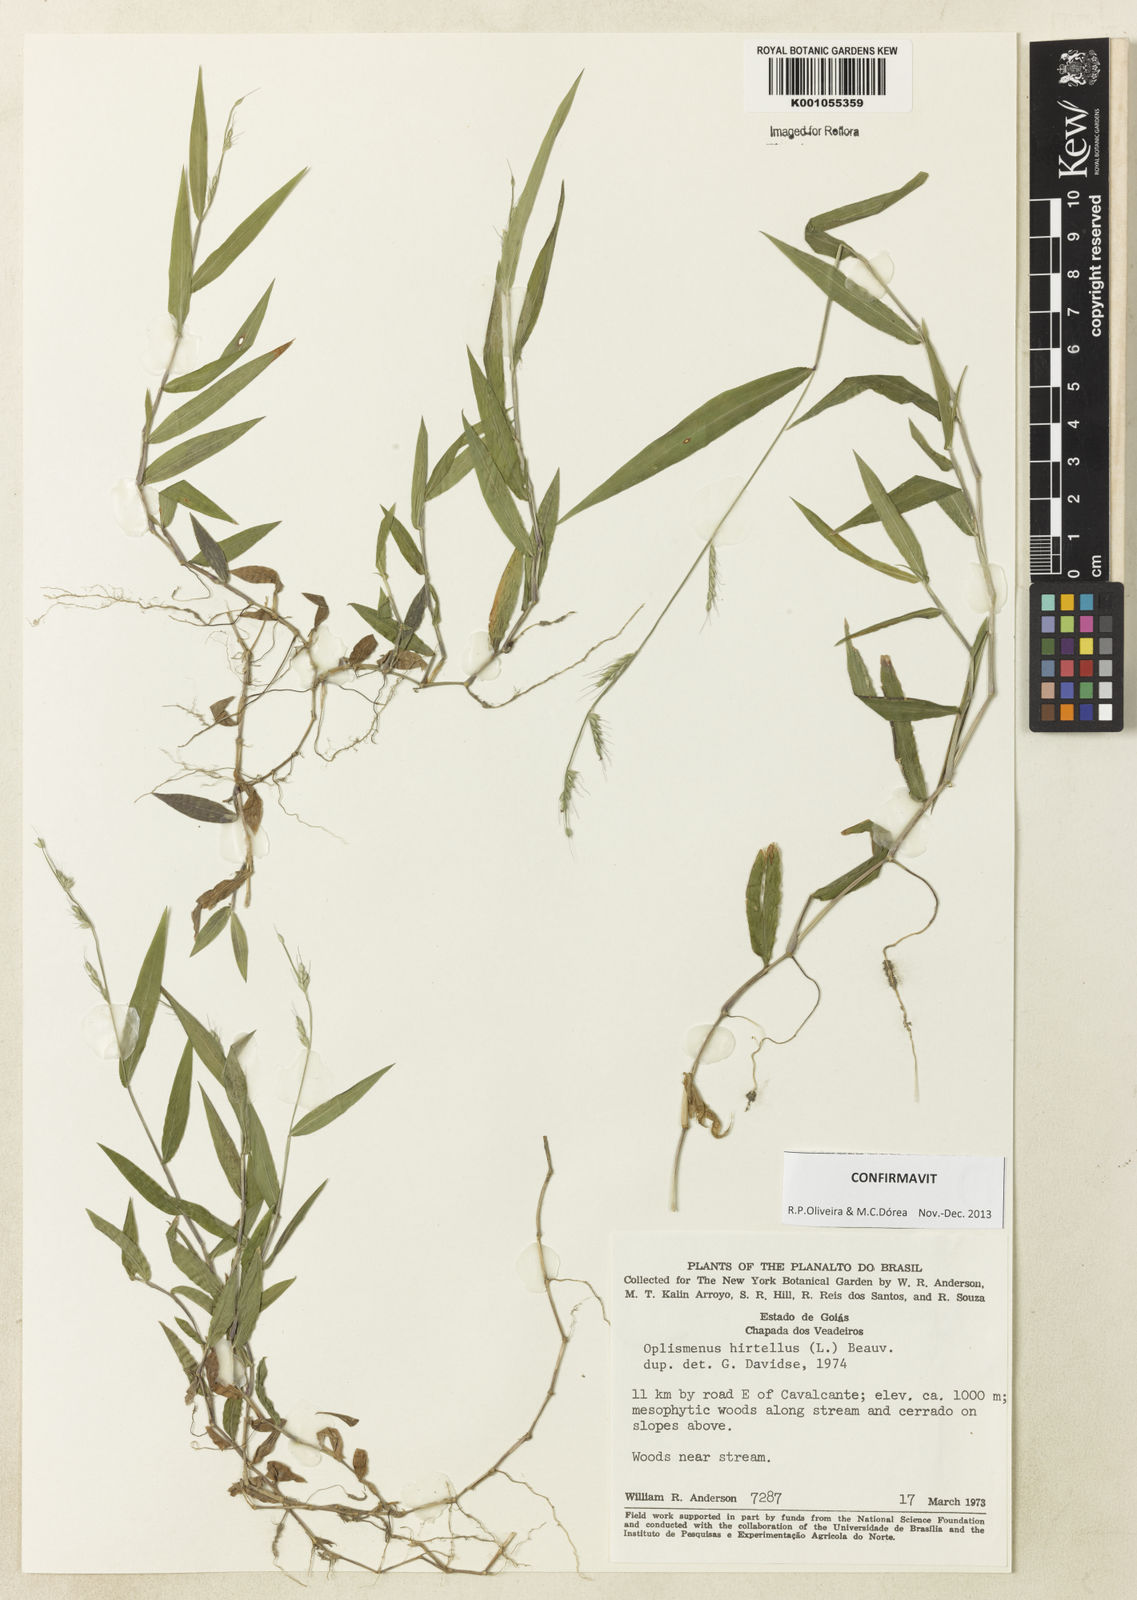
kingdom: Plantae
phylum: Tracheophyta
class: Liliopsida
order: Poales
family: Poaceae
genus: Oplismenus
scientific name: Oplismenus hirtellus
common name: Basketgrass
